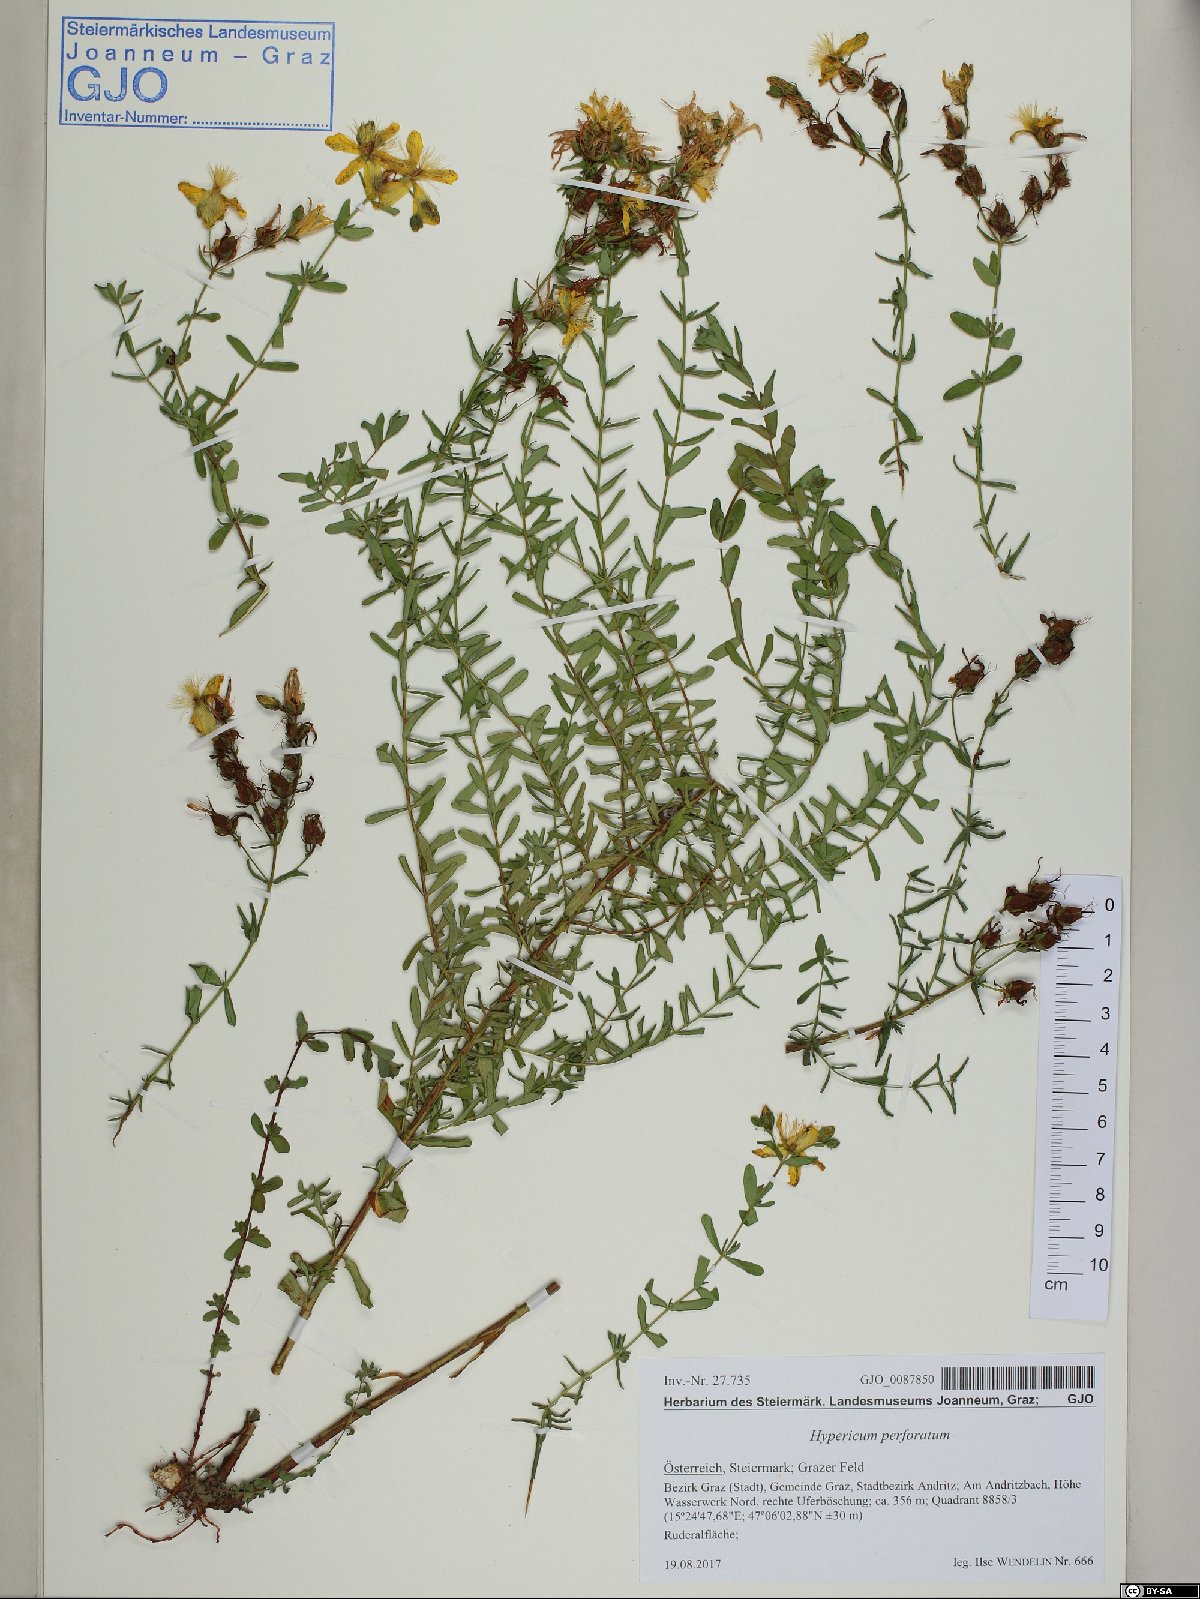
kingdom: Plantae
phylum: Tracheophyta
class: Magnoliopsida
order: Malpighiales
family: Hypericaceae
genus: Hypericum
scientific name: Hypericum perforatum
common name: Common st. johnswort
